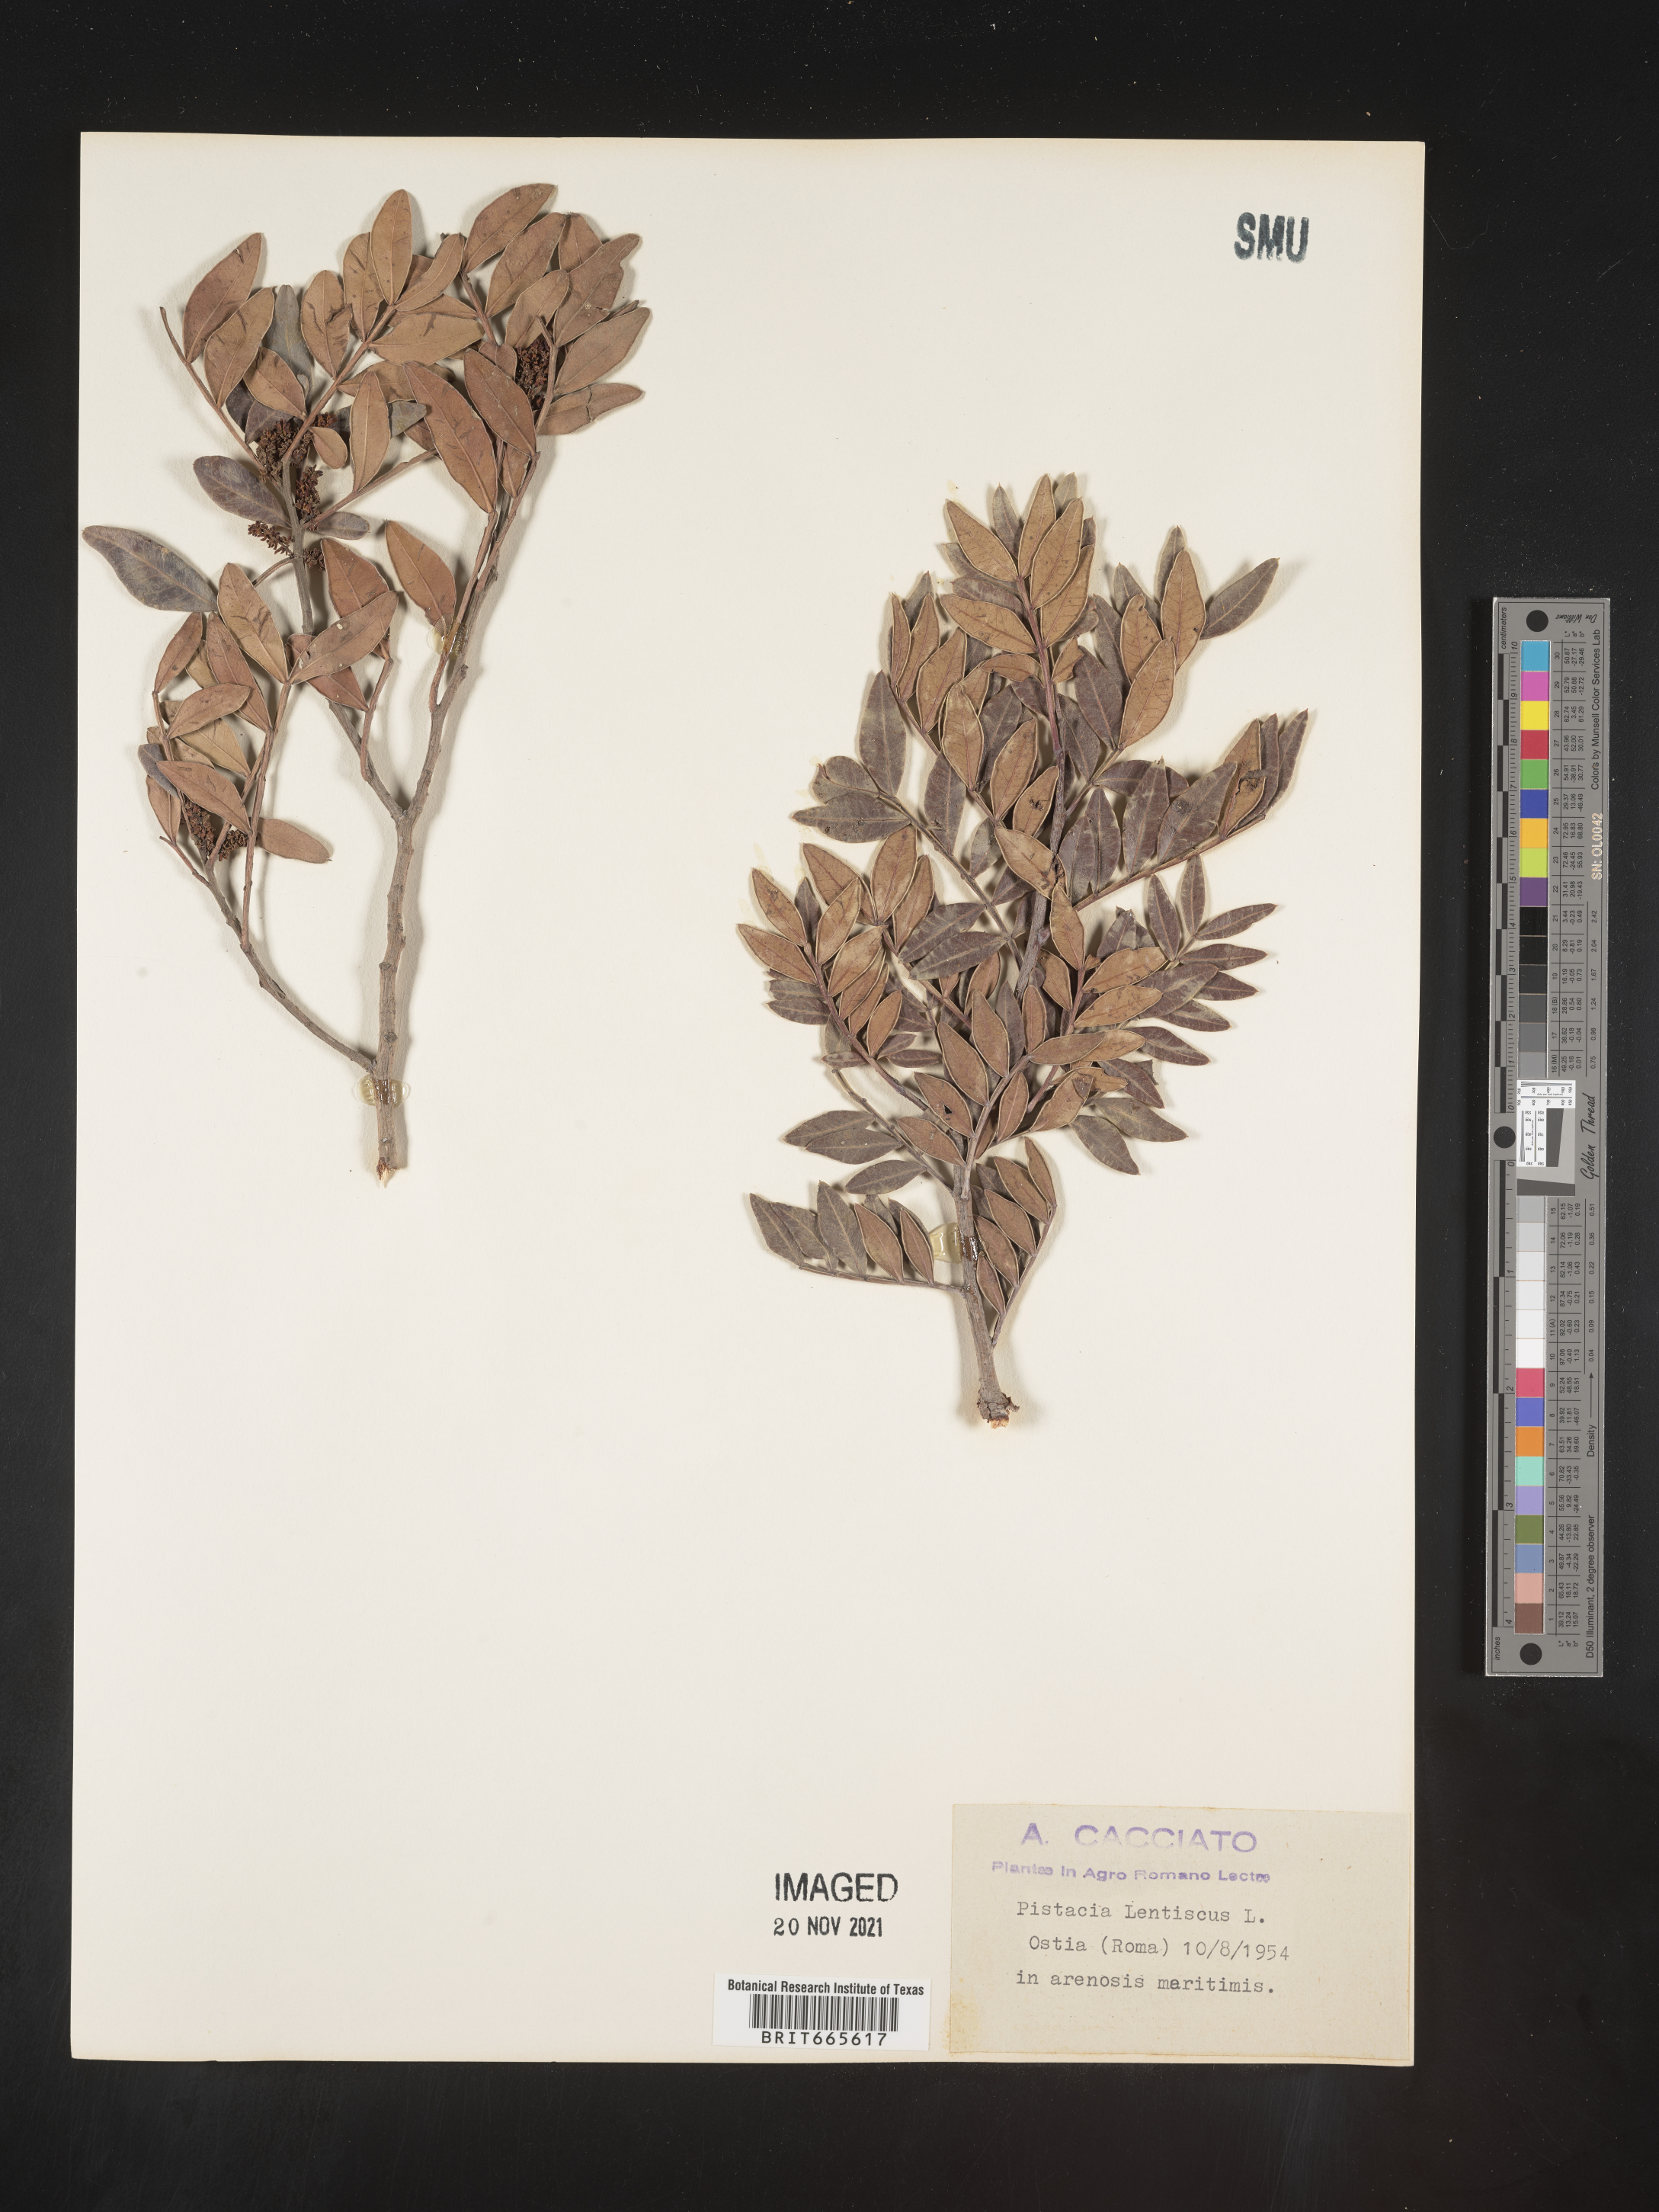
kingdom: Plantae
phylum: Tracheophyta
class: Magnoliopsida
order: Sapindales
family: Anacardiaceae
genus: Pistacia
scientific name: Pistacia
